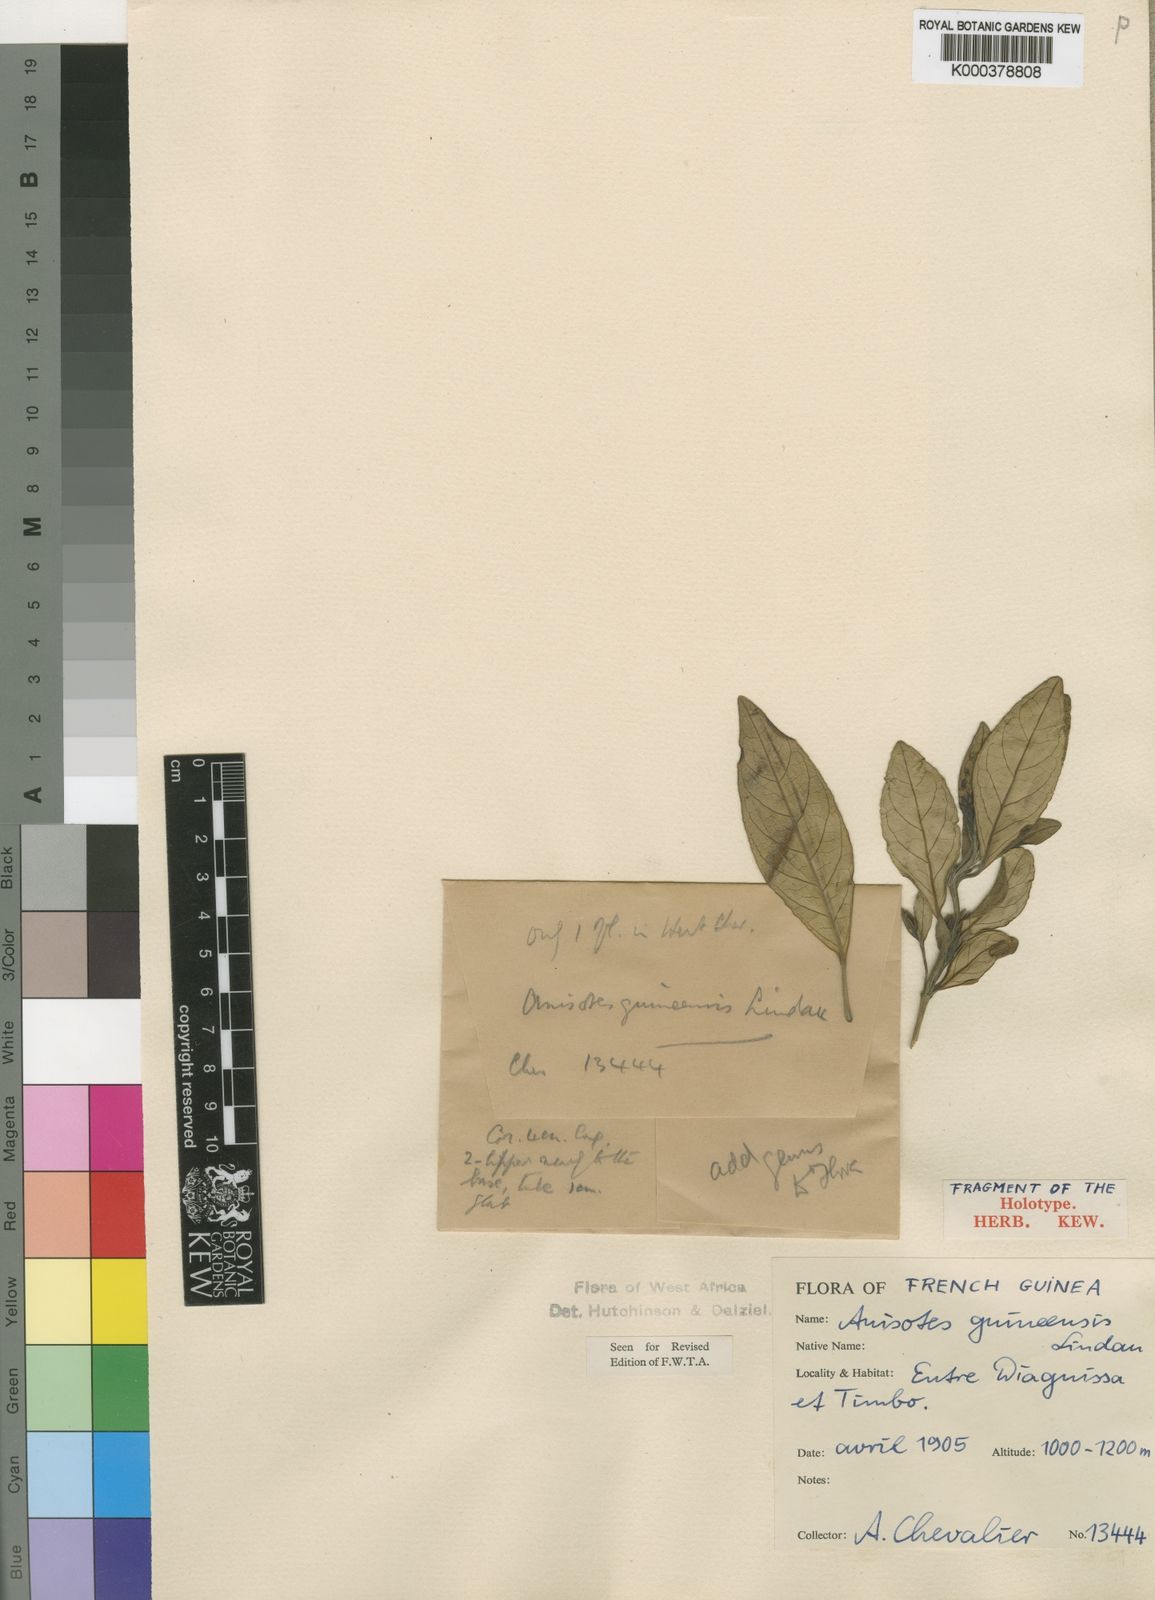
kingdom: Plantae
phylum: Tracheophyta
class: Magnoliopsida
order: Lamiales
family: Acanthaceae
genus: Anisotes
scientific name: Anisotes guineensis
